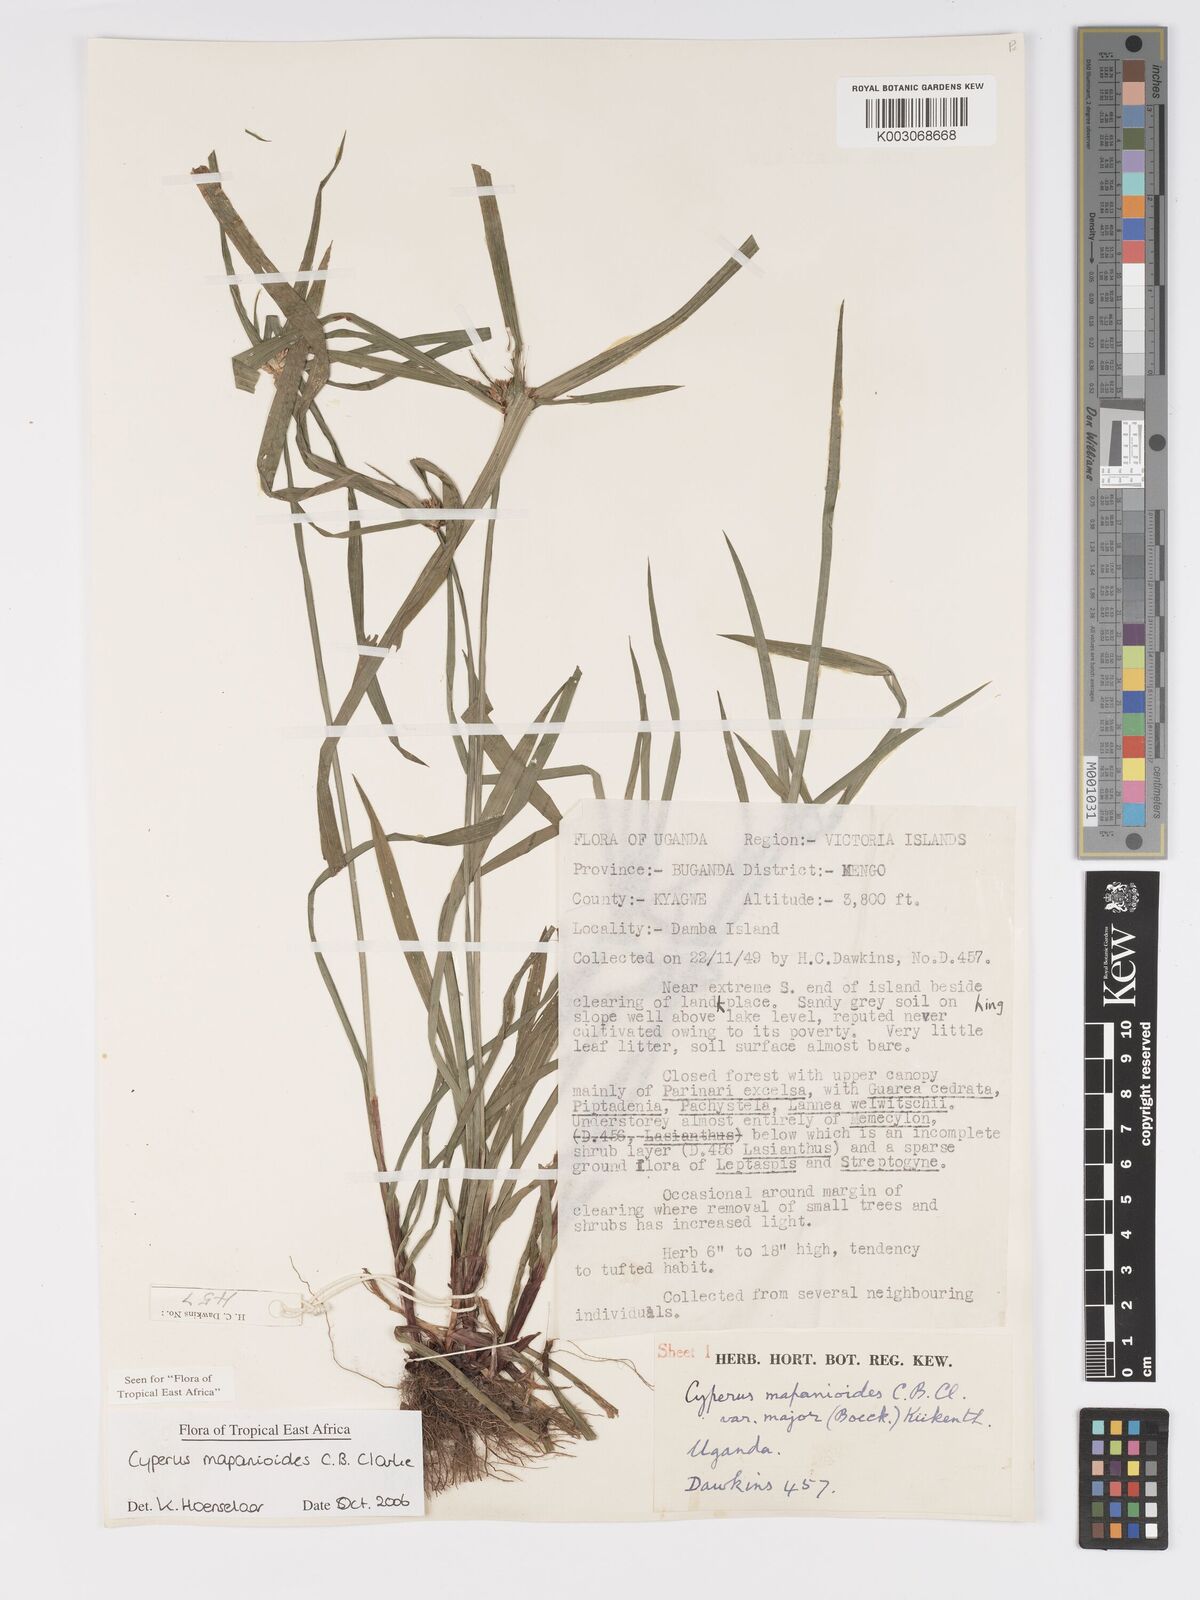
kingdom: Plantae
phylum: Tracheophyta
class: Liliopsida
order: Poales
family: Cyperaceae
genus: Cyperus
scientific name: Cyperus mapanioides
